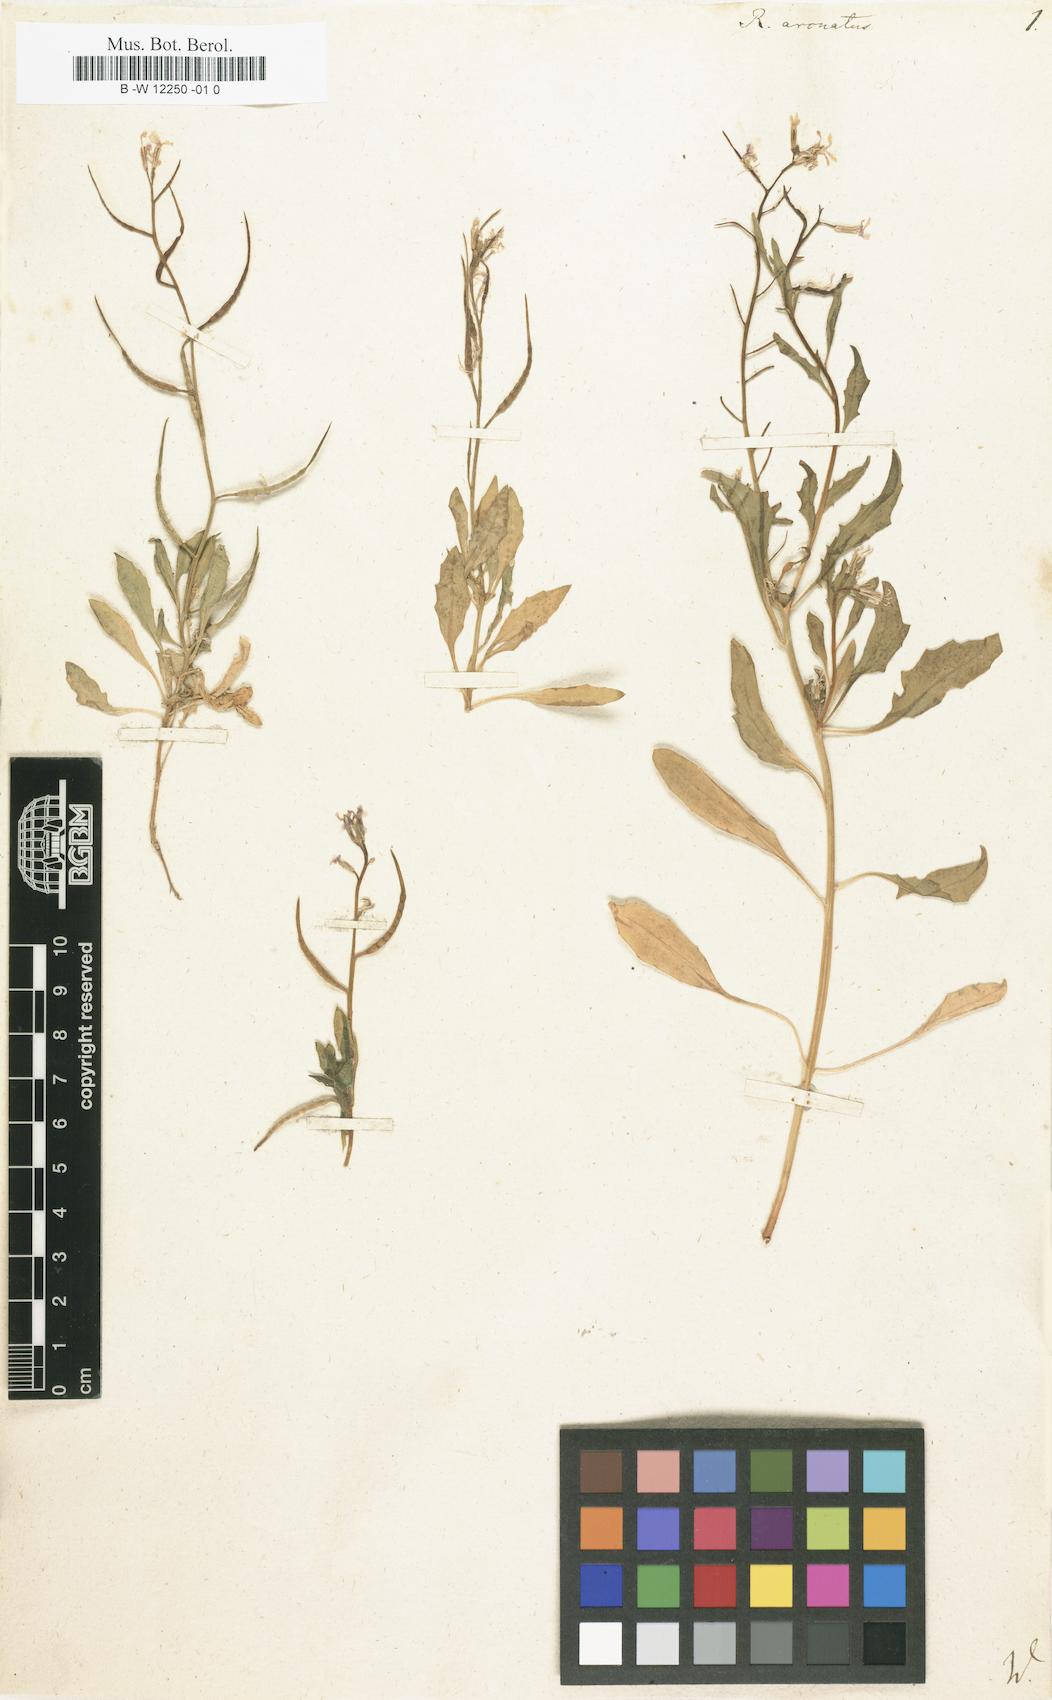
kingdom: Plantae
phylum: Tracheophyta
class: Magnoliopsida
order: Brassicales
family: Brassicaceae
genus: Chorispora
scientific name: Chorispora tenella
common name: Crossflower
